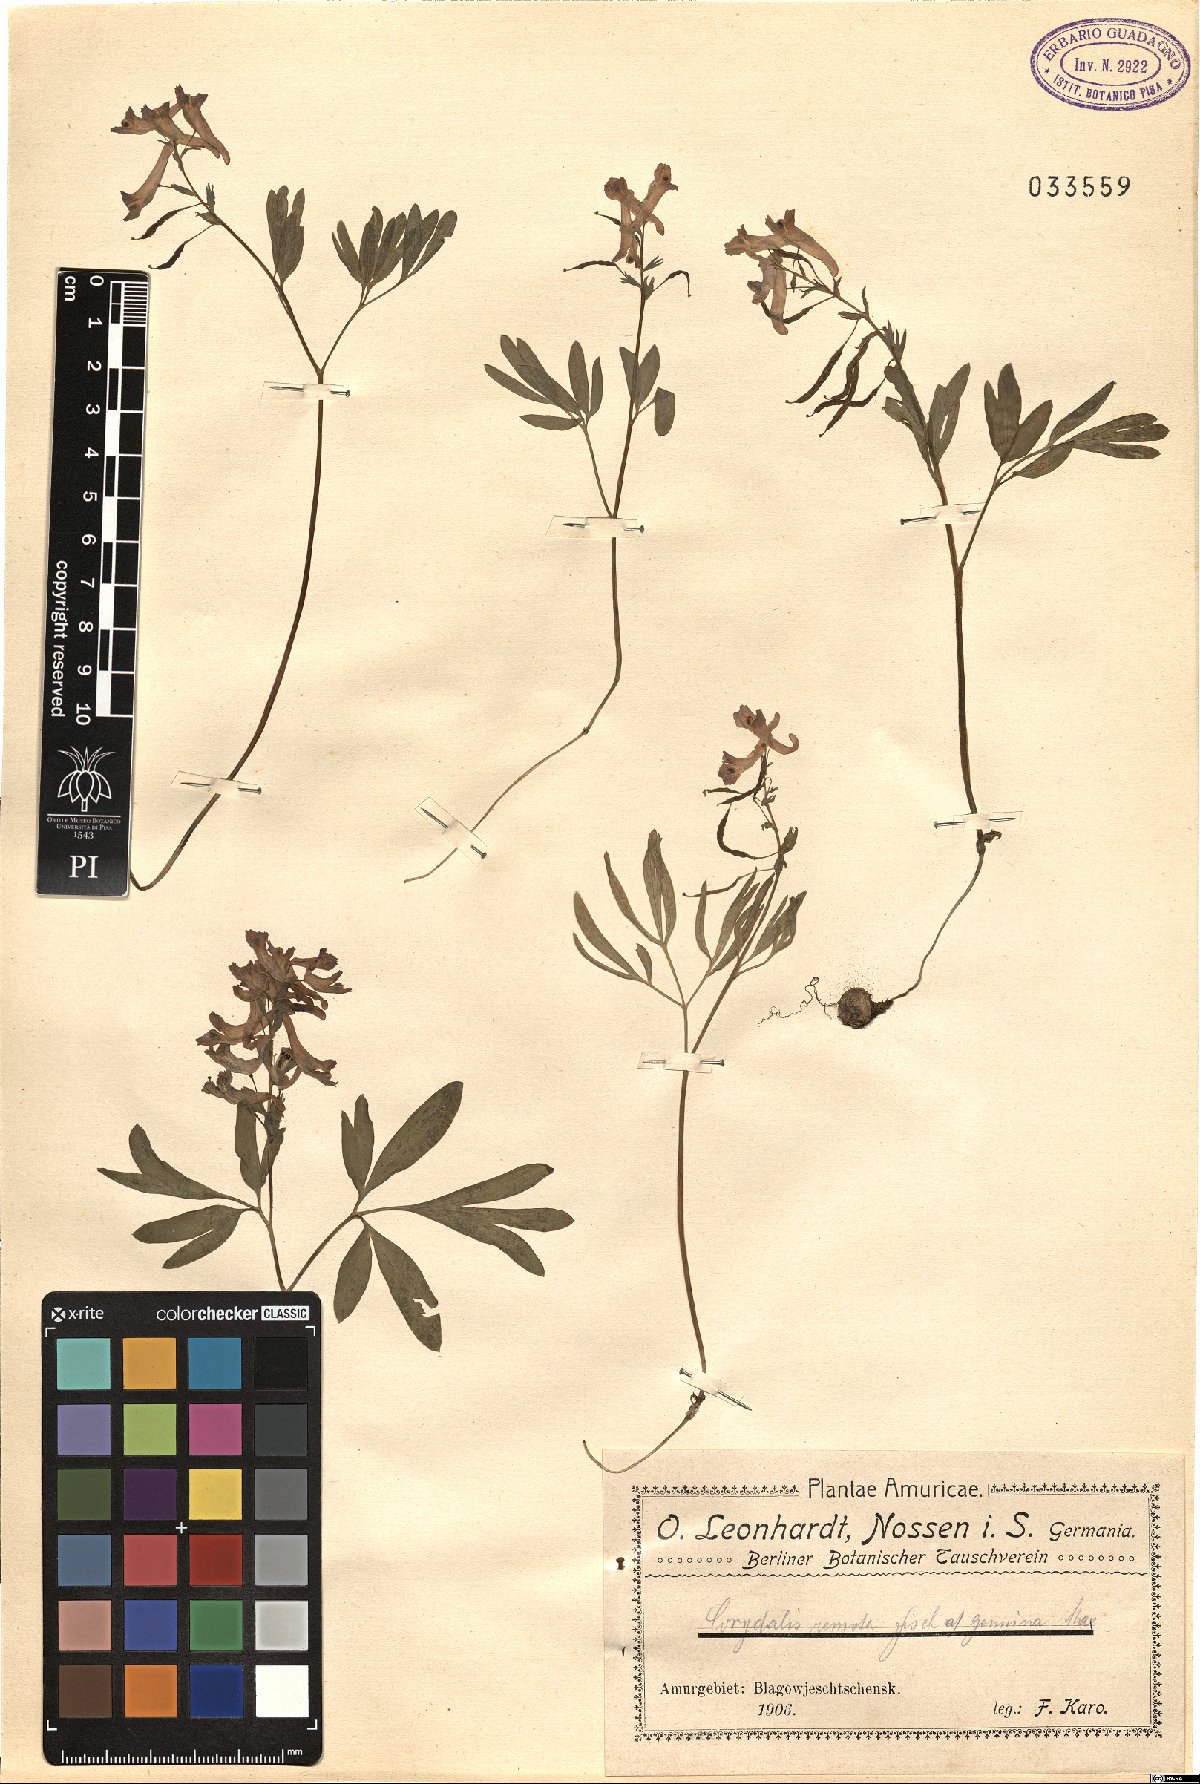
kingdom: Plantae
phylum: Tracheophyta
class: Magnoliopsida
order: Ranunculales
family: Papaveraceae
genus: Corydalis
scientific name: Corydalis turtschaninovii
